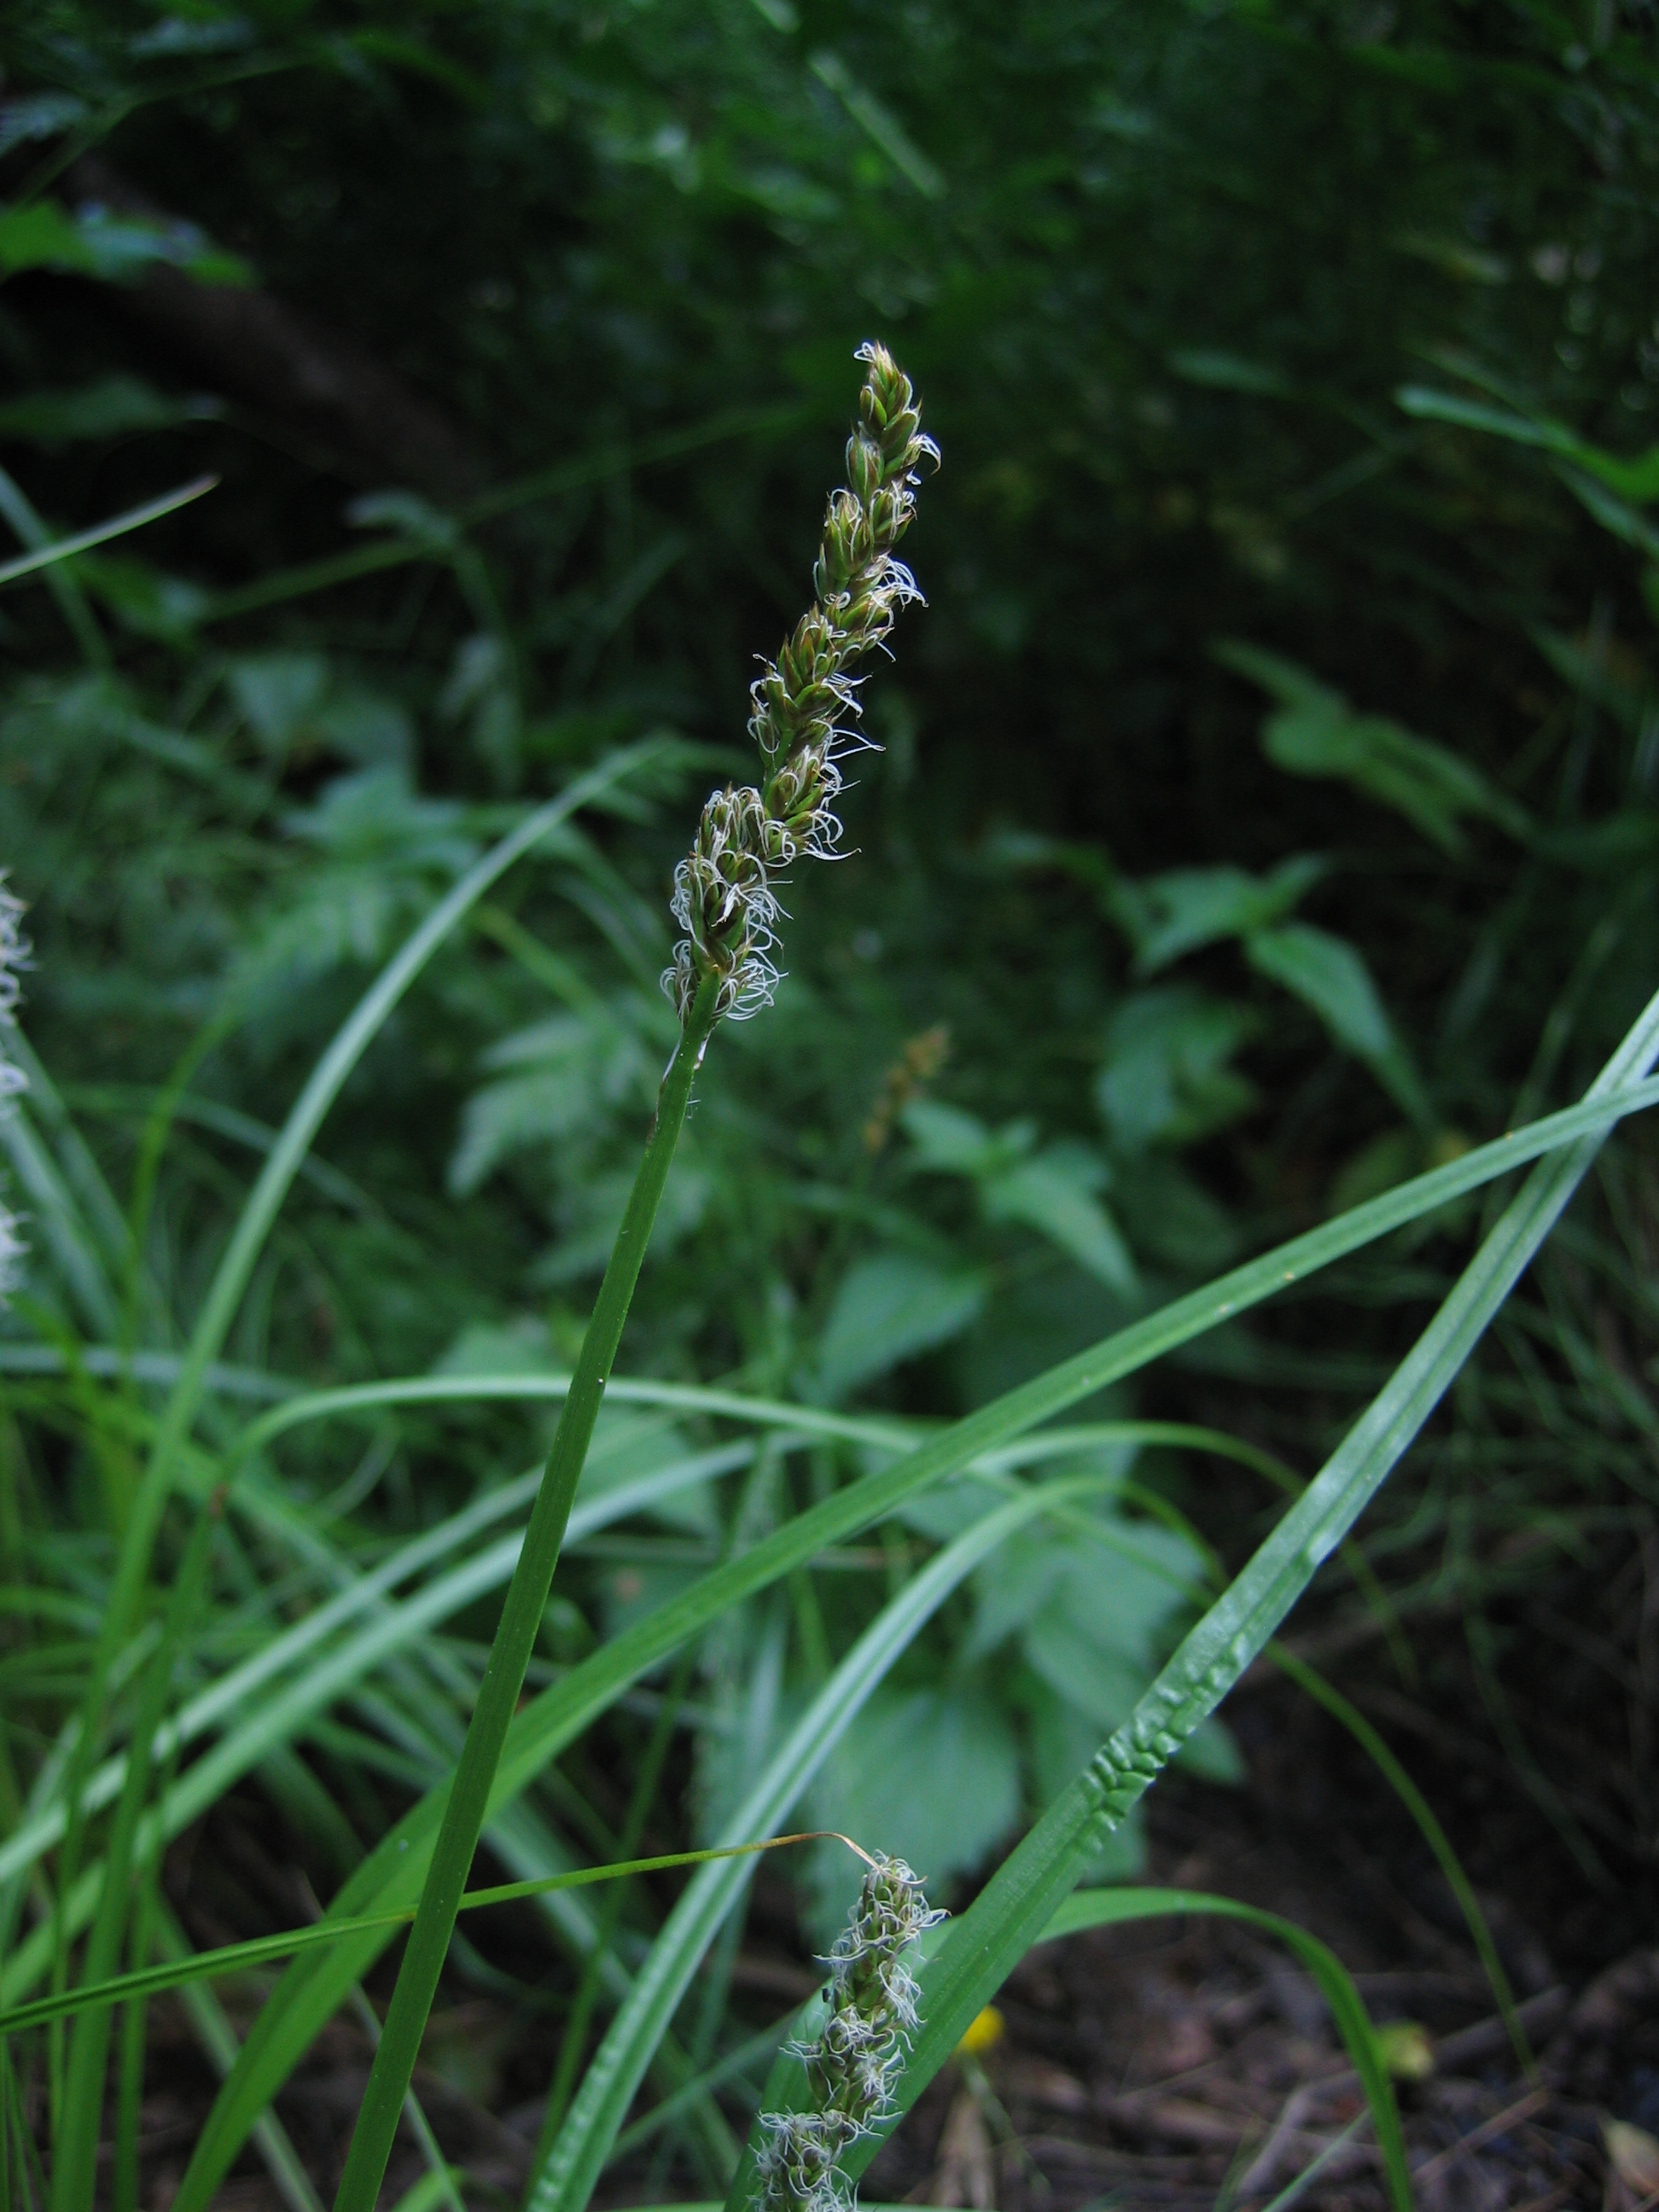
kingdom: Plantae
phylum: Tracheophyta
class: Liliopsida
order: Poales
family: Cyperaceae
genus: Carex
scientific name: Carex vulpina
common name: True fox-sedge
